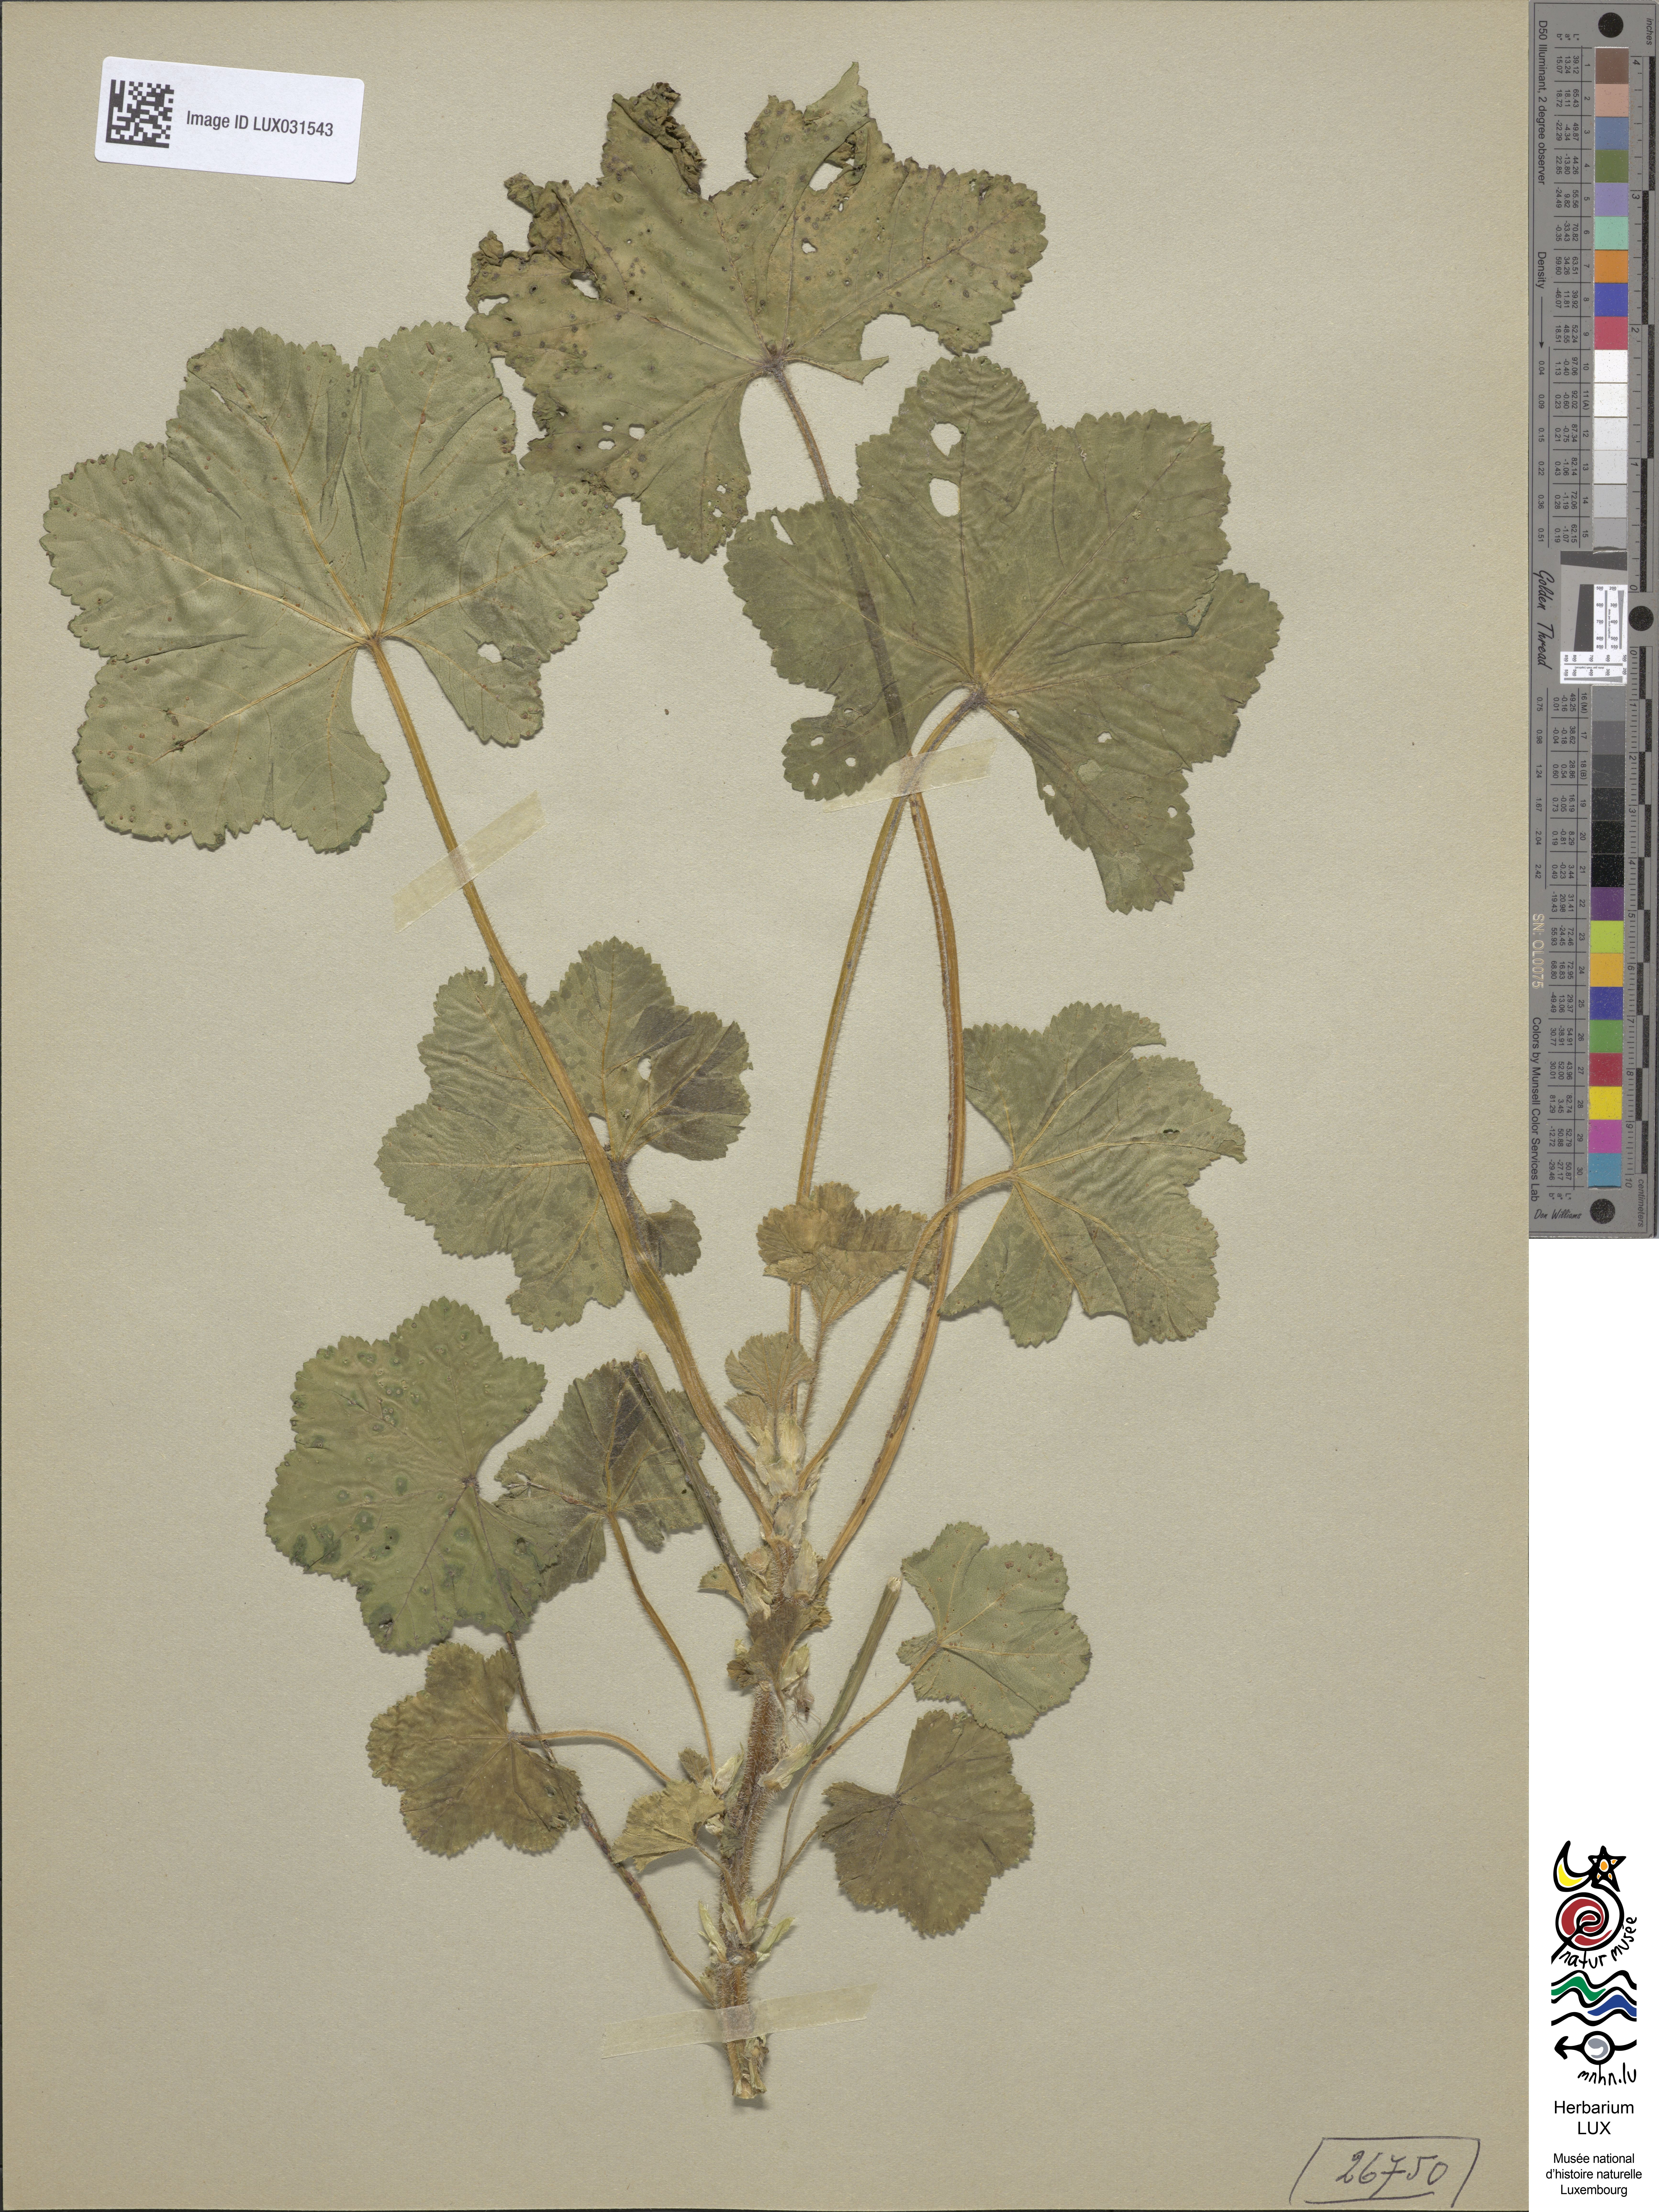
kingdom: Plantae
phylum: Tracheophyta
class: Magnoliopsida
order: Malvales
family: Malvaceae
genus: Malva
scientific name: Malva sylvestris
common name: Common mallow
